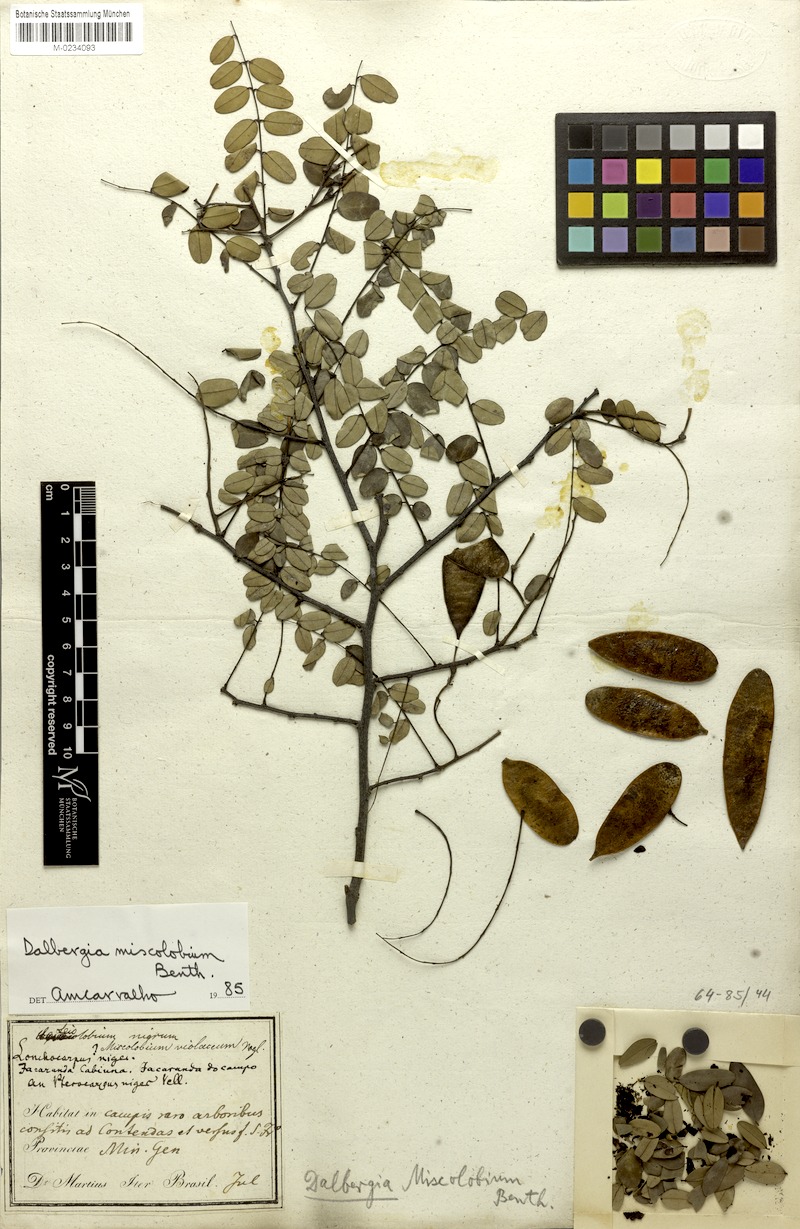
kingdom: Plantae
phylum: Tracheophyta
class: Magnoliopsida
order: Fabales
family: Fabaceae
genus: Dalbergia
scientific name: Dalbergia miscolobium
